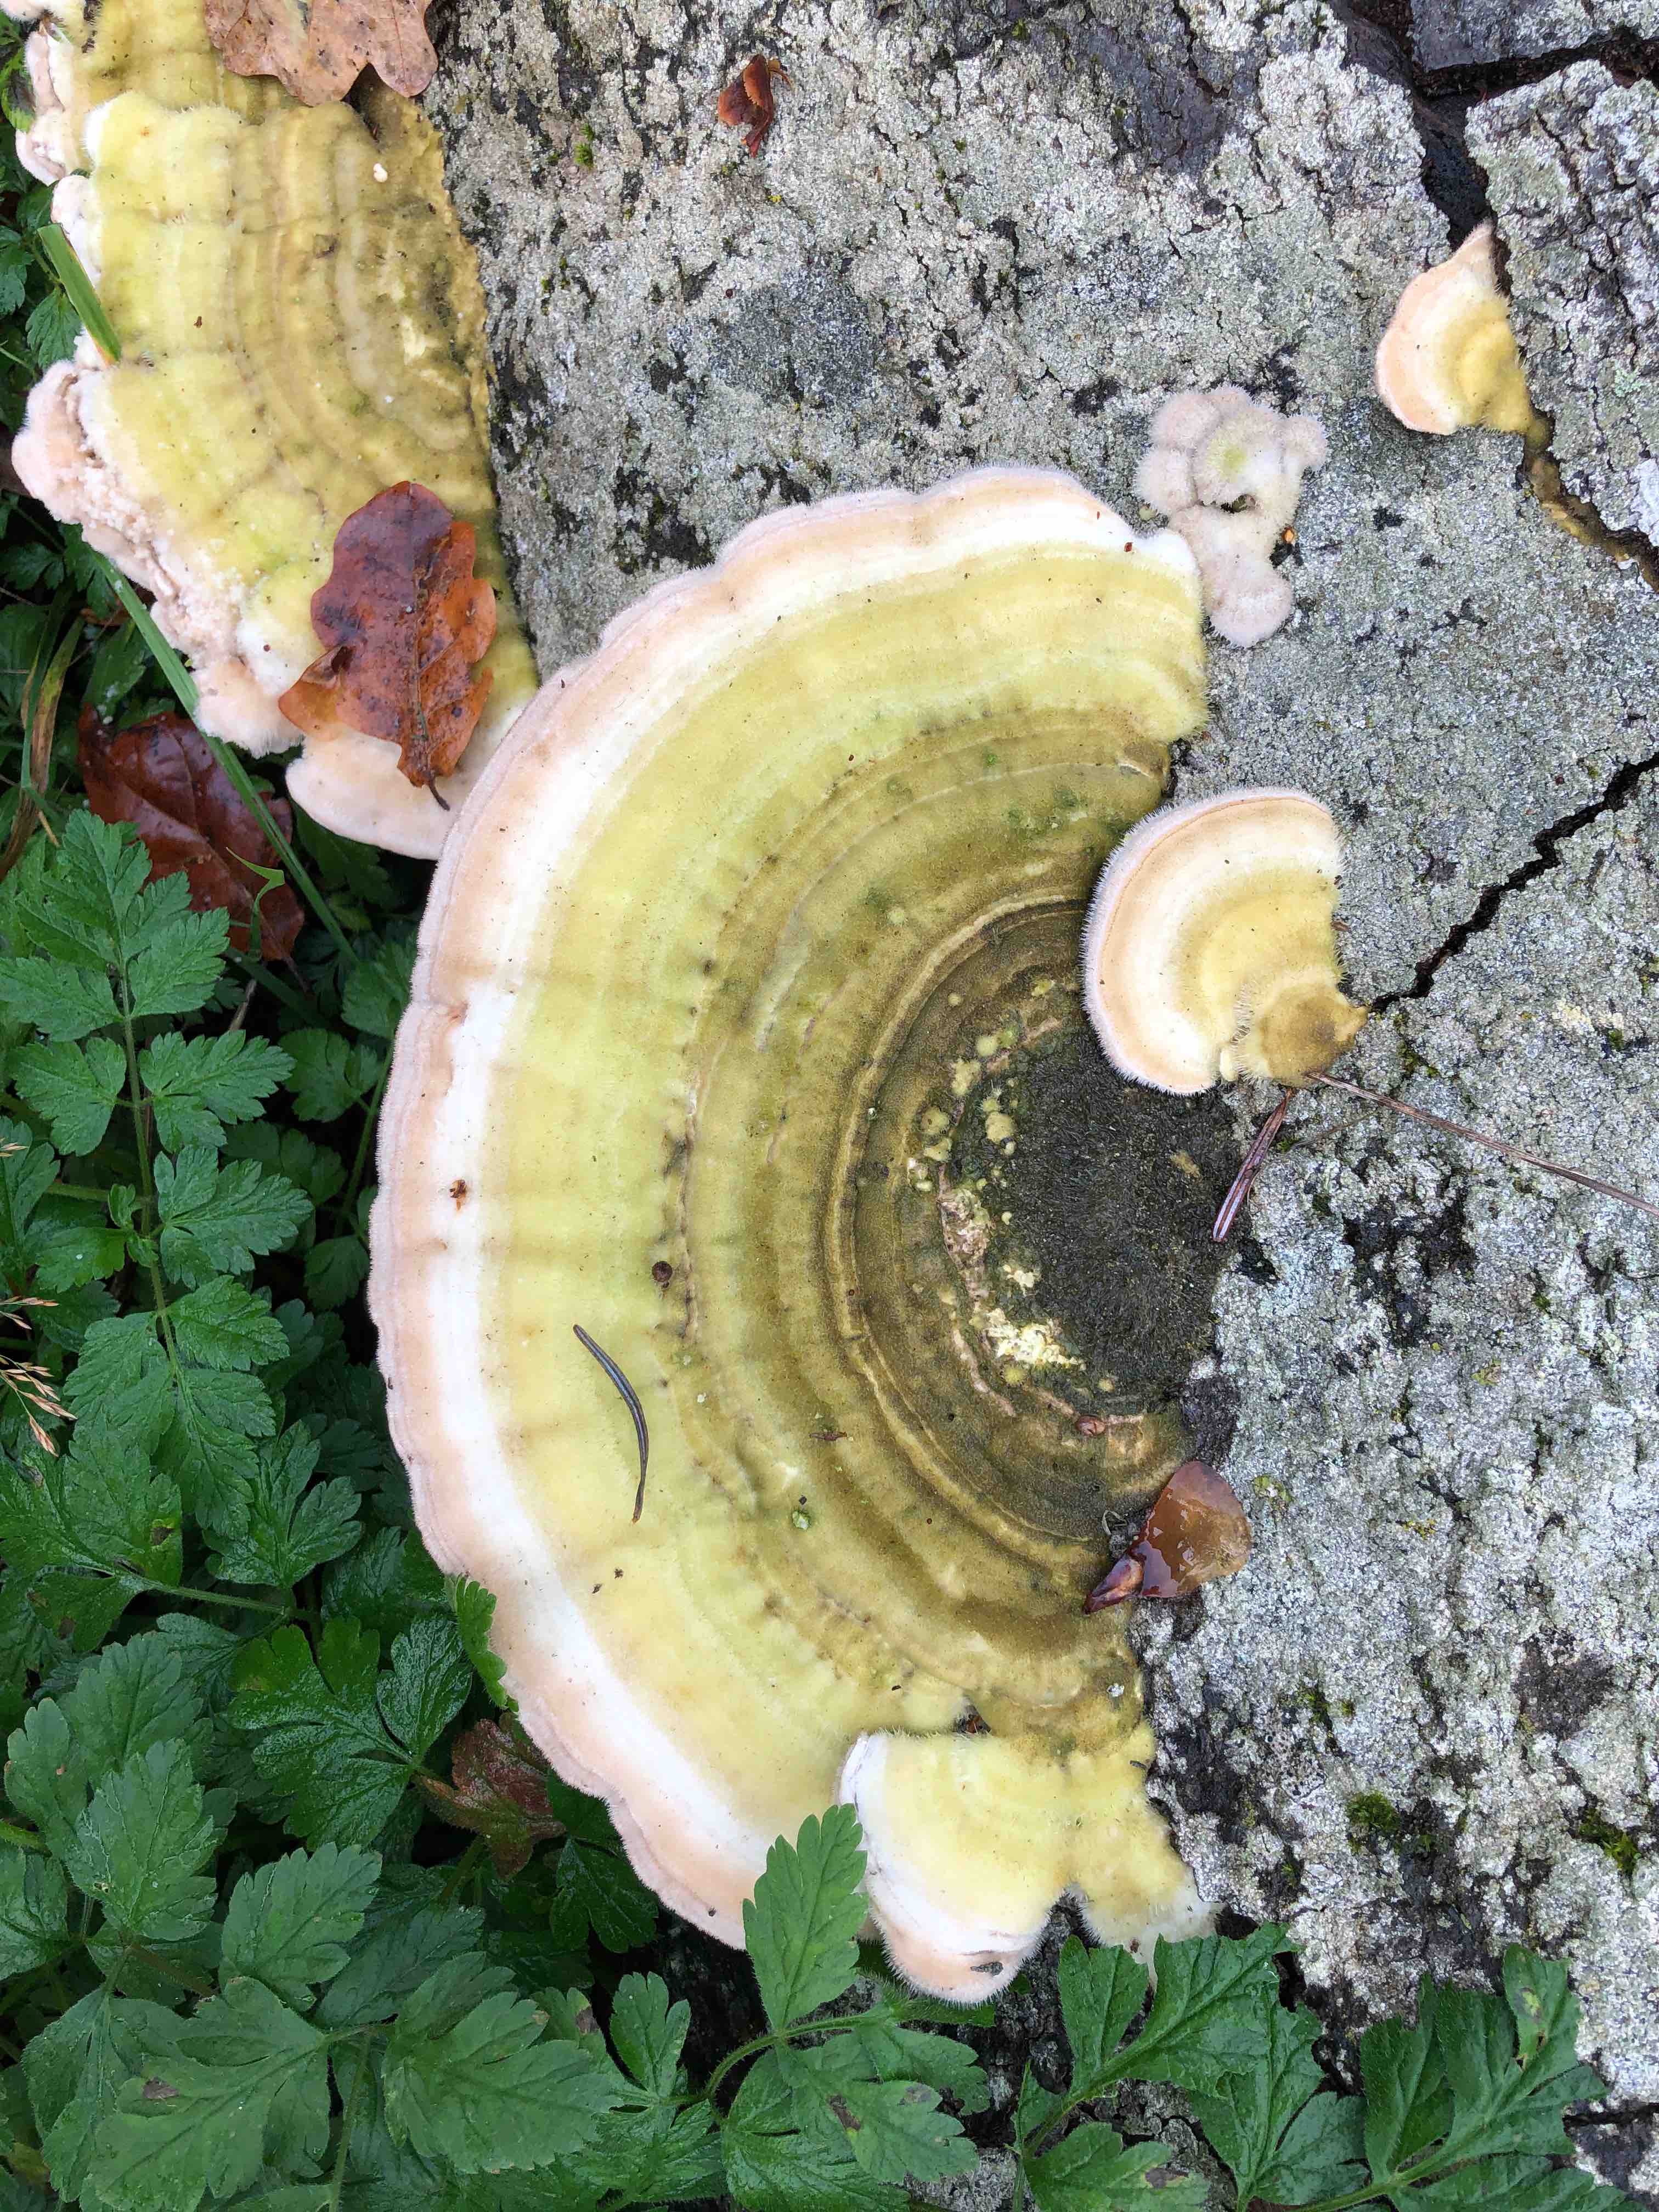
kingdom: Fungi
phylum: Basidiomycota
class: Agaricomycetes
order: Polyporales
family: Polyporaceae
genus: Trametes
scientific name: Trametes hirsuta
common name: håret læderporesvamp
